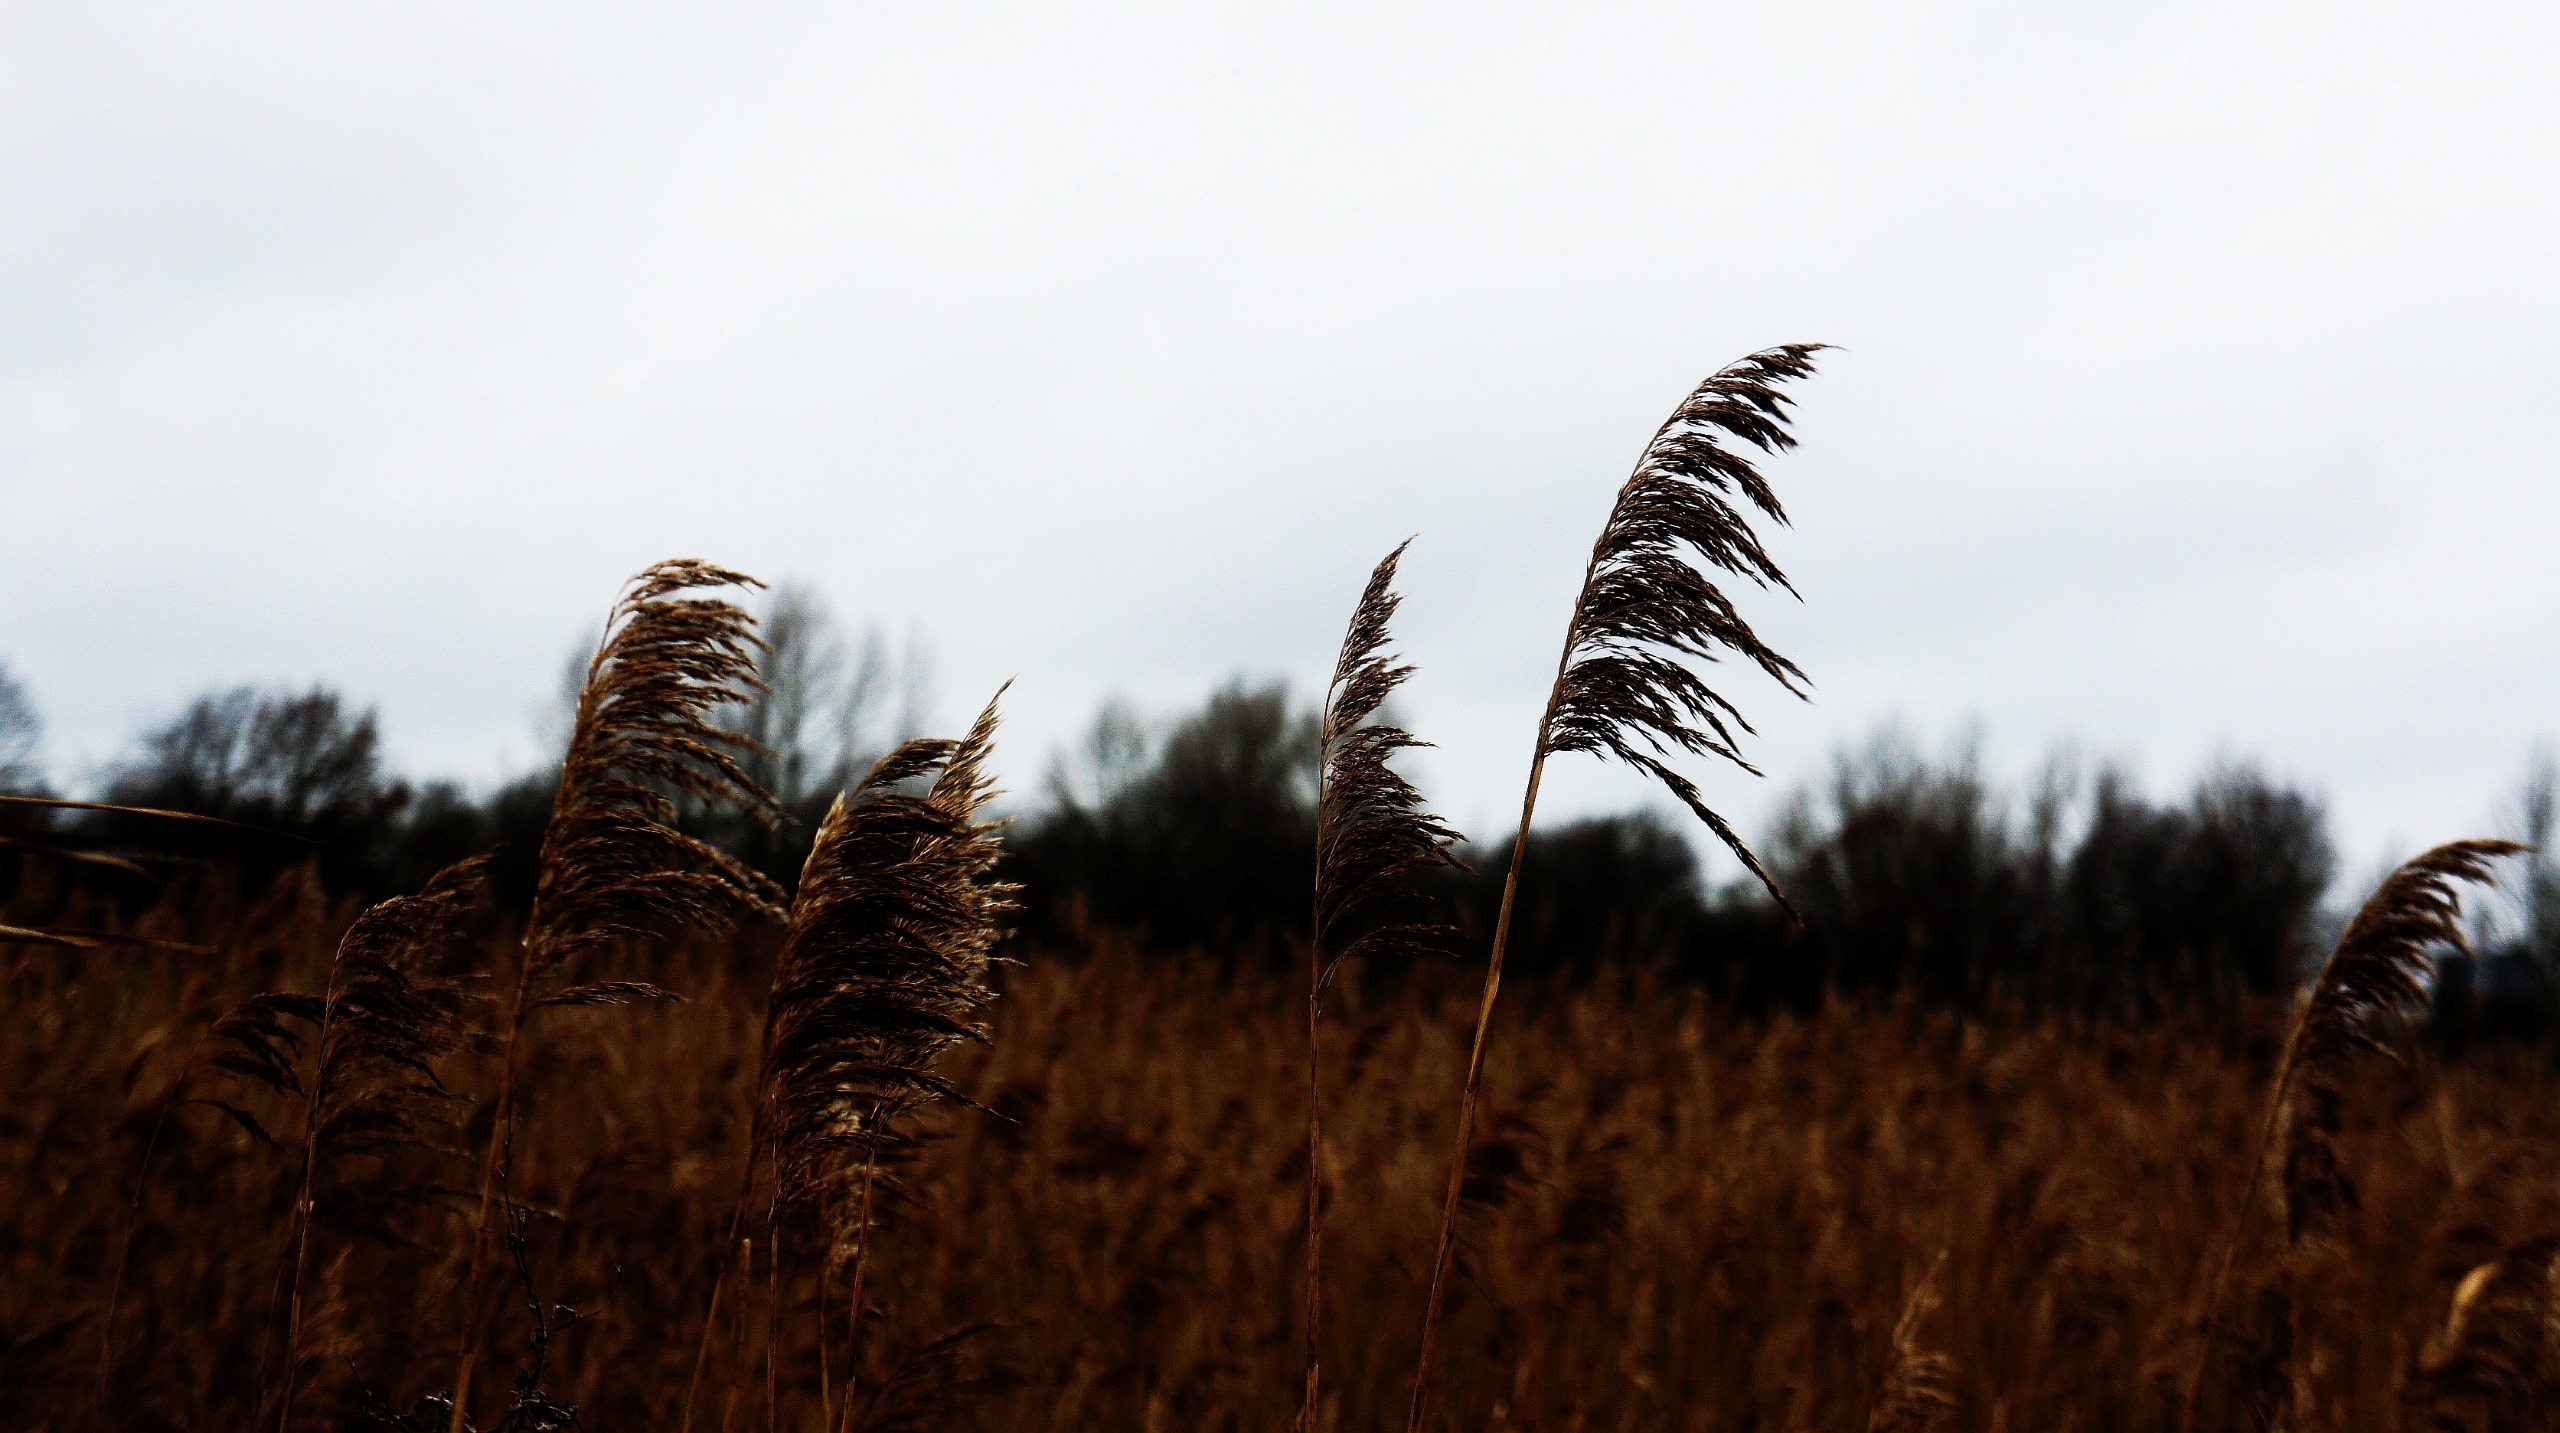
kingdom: Plantae
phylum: Tracheophyta
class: Liliopsida
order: Poales
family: Poaceae
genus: Phragmites
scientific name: Phragmites australis
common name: Tagrør
